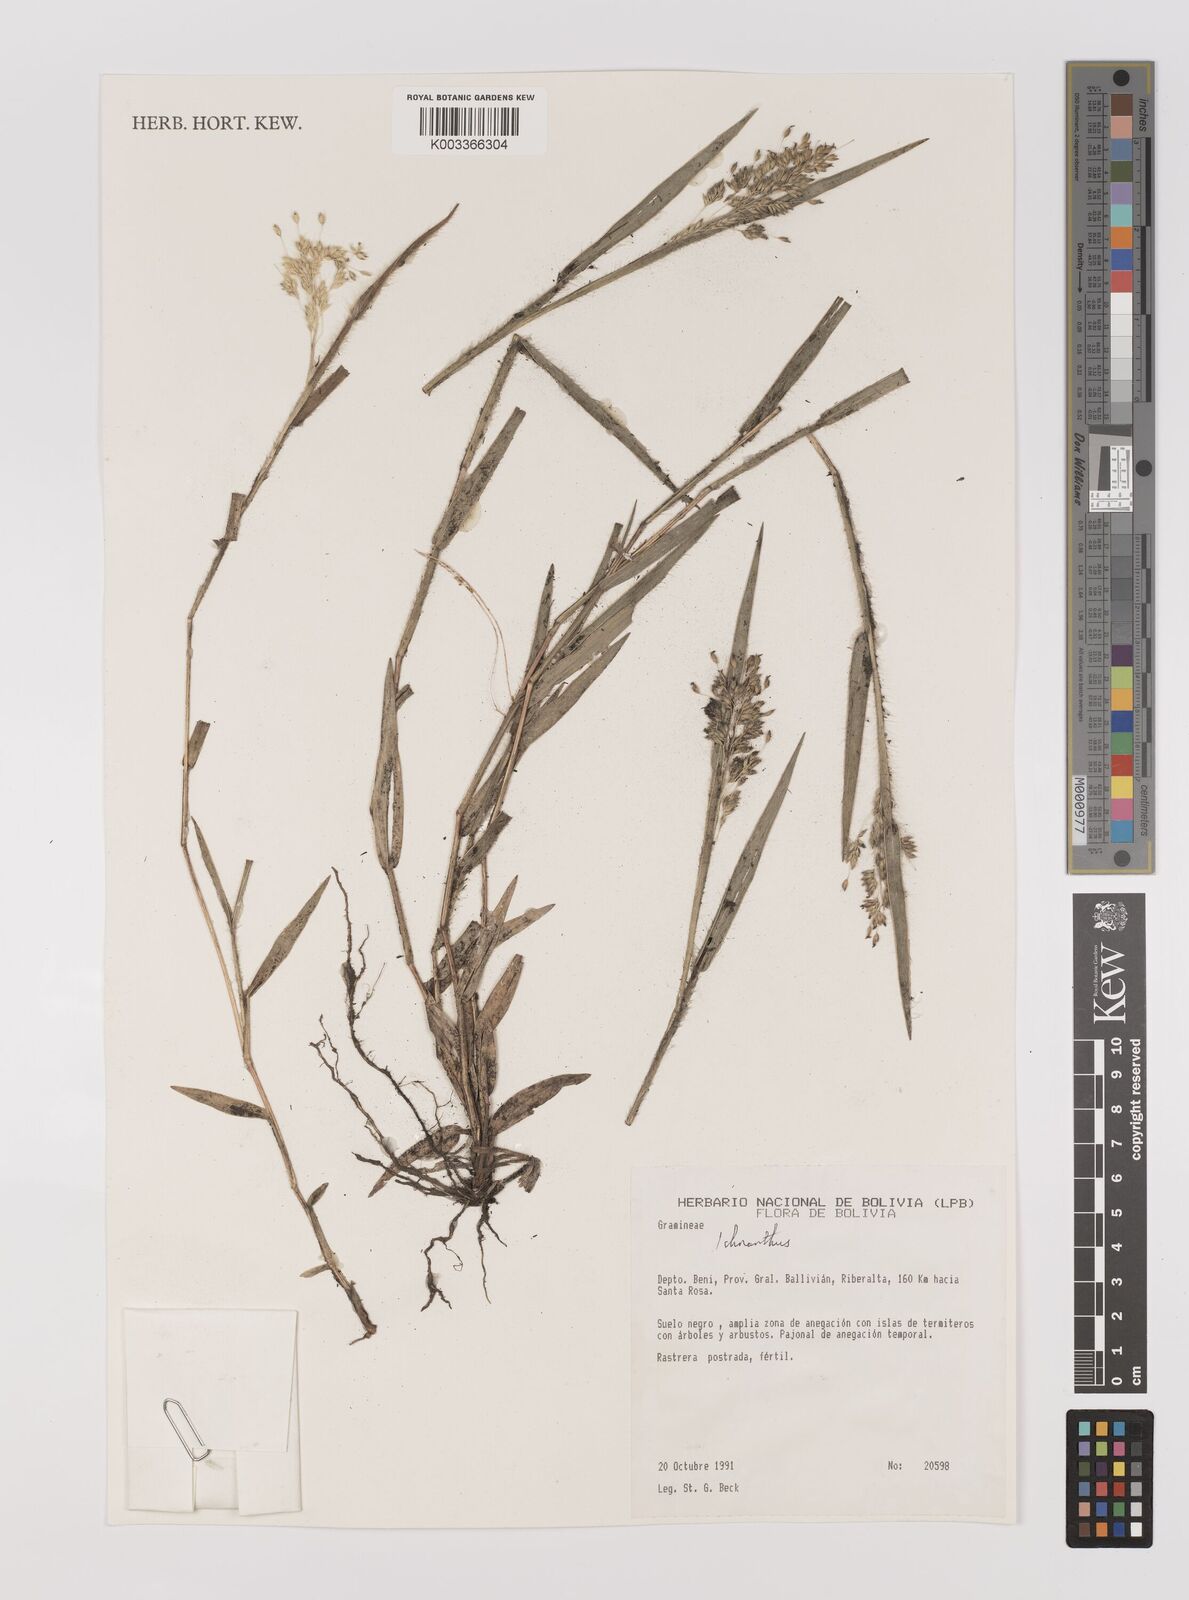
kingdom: Plantae
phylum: Tracheophyta
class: Liliopsida
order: Poales
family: Poaceae
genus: Oedochloa
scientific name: Oedochloa procurrens
